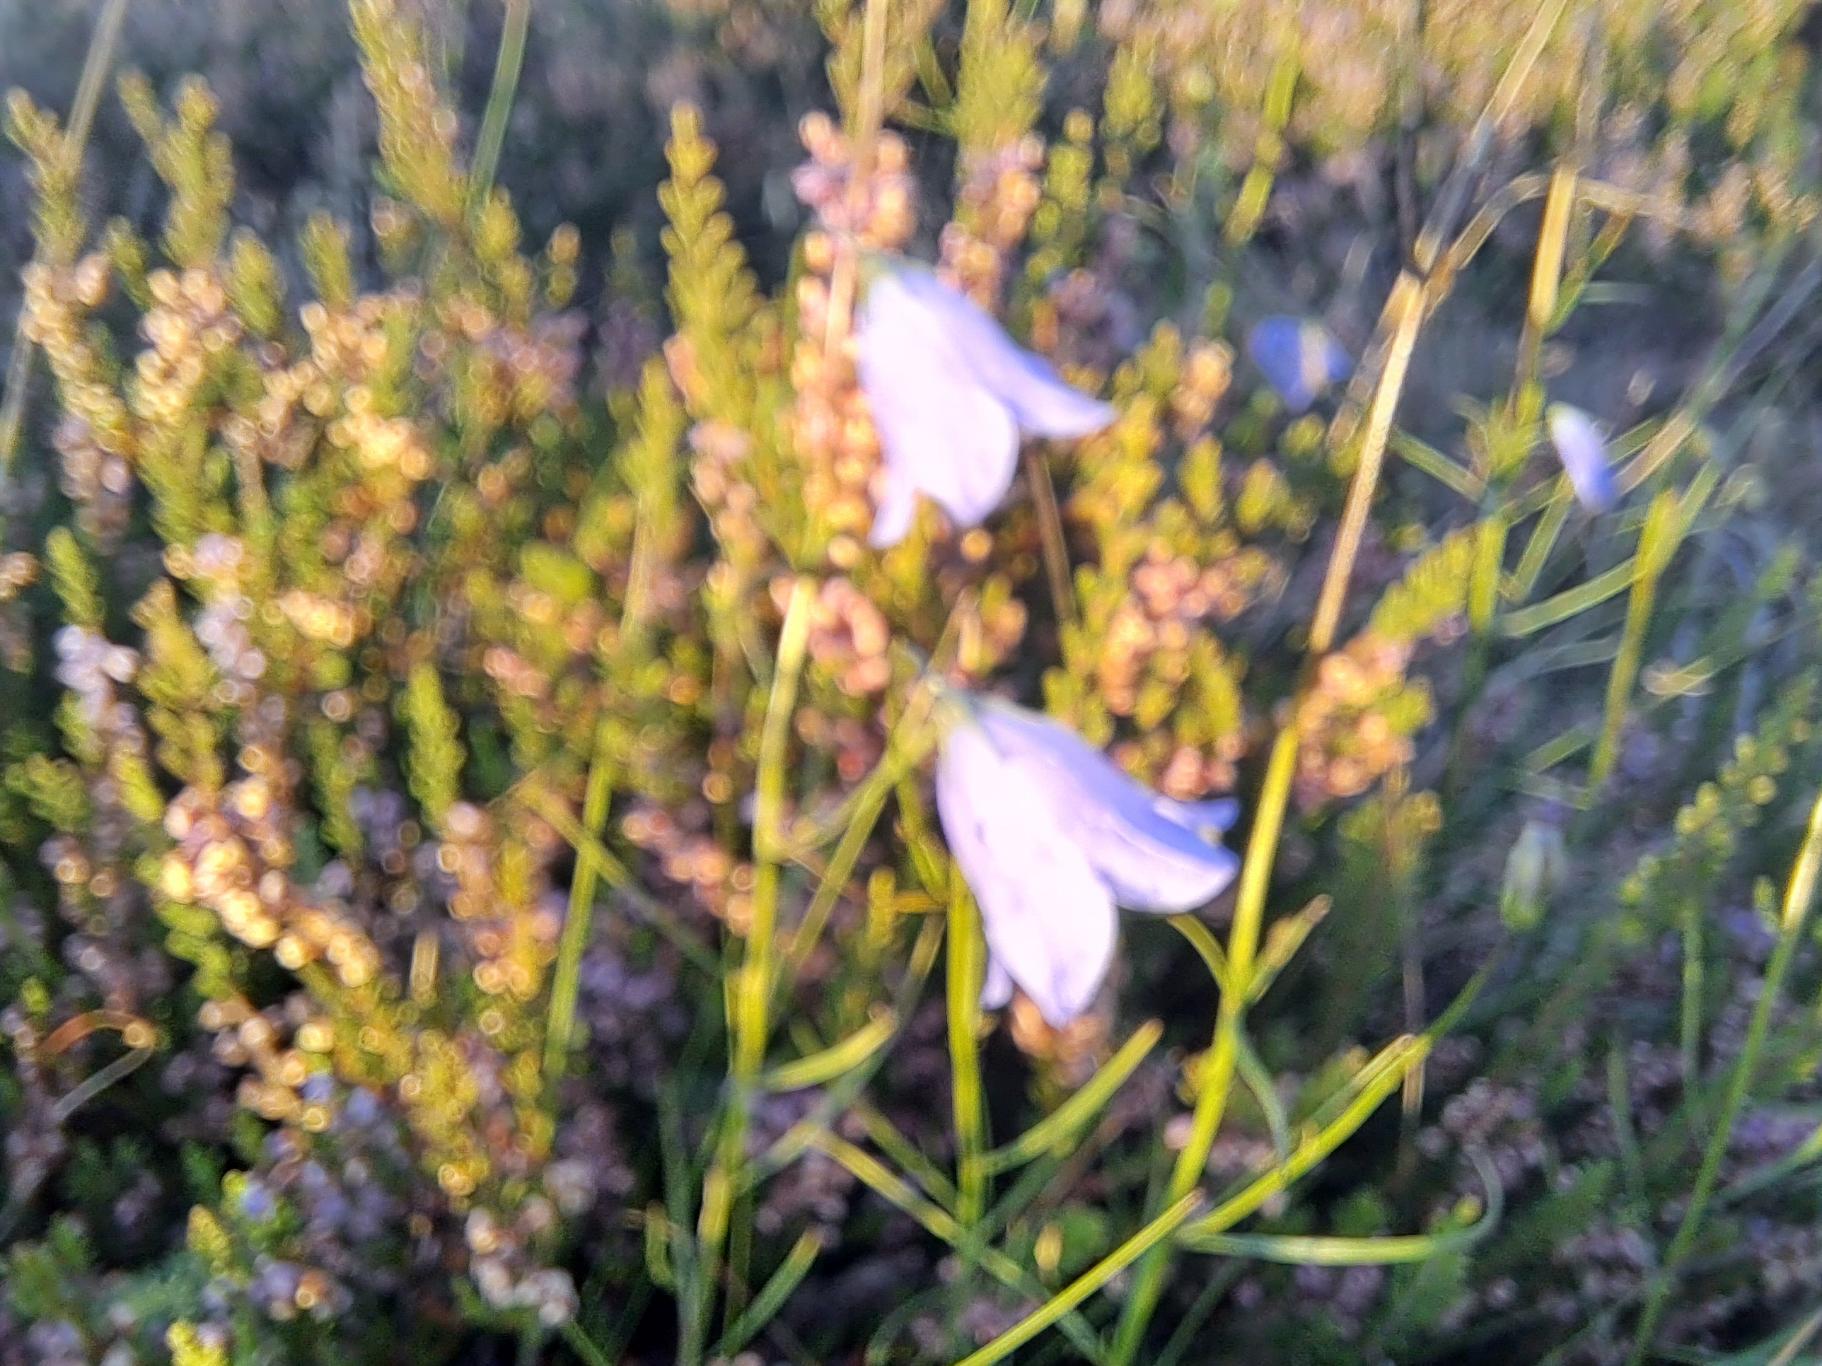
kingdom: Plantae
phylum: Tracheophyta
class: Magnoliopsida
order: Asterales
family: Campanulaceae
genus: Campanula
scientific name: Campanula rotundifolia
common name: Liden klokke
